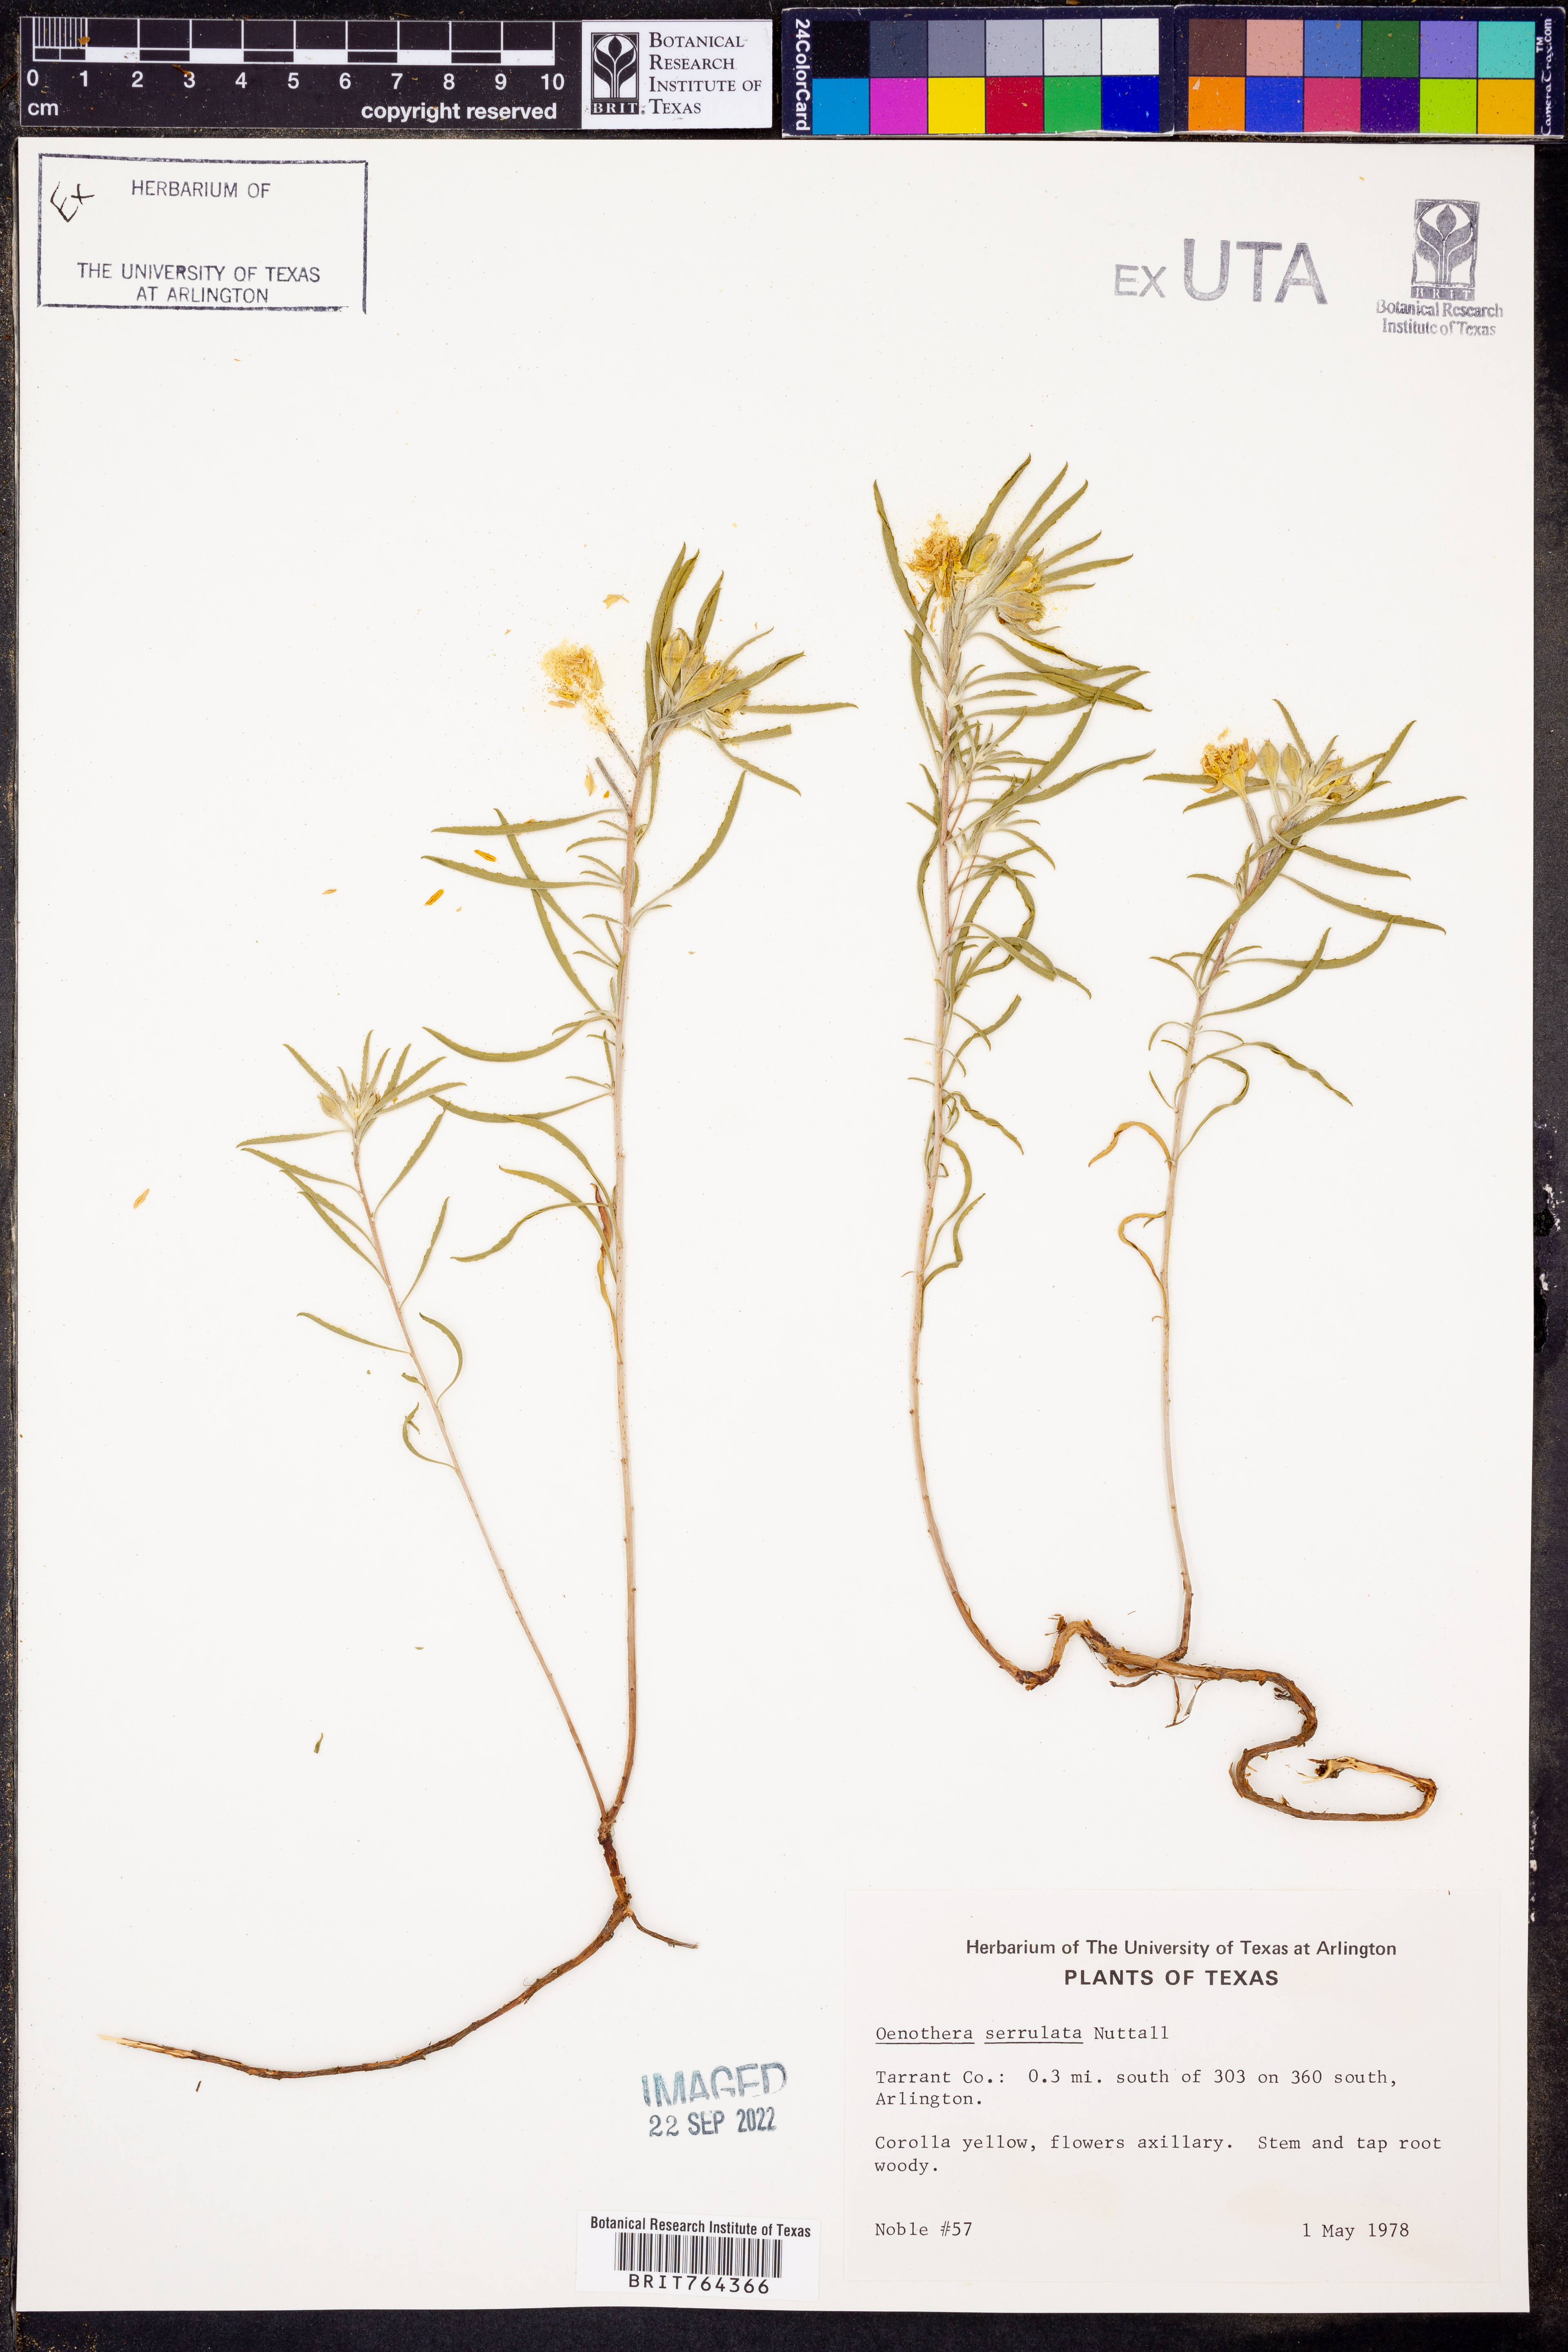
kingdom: Plantae
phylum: Tracheophyta
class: Magnoliopsida
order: Myrtales
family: Onagraceae
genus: Oenothera
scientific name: Oenothera serrulata
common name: Half-shrub calylophus
